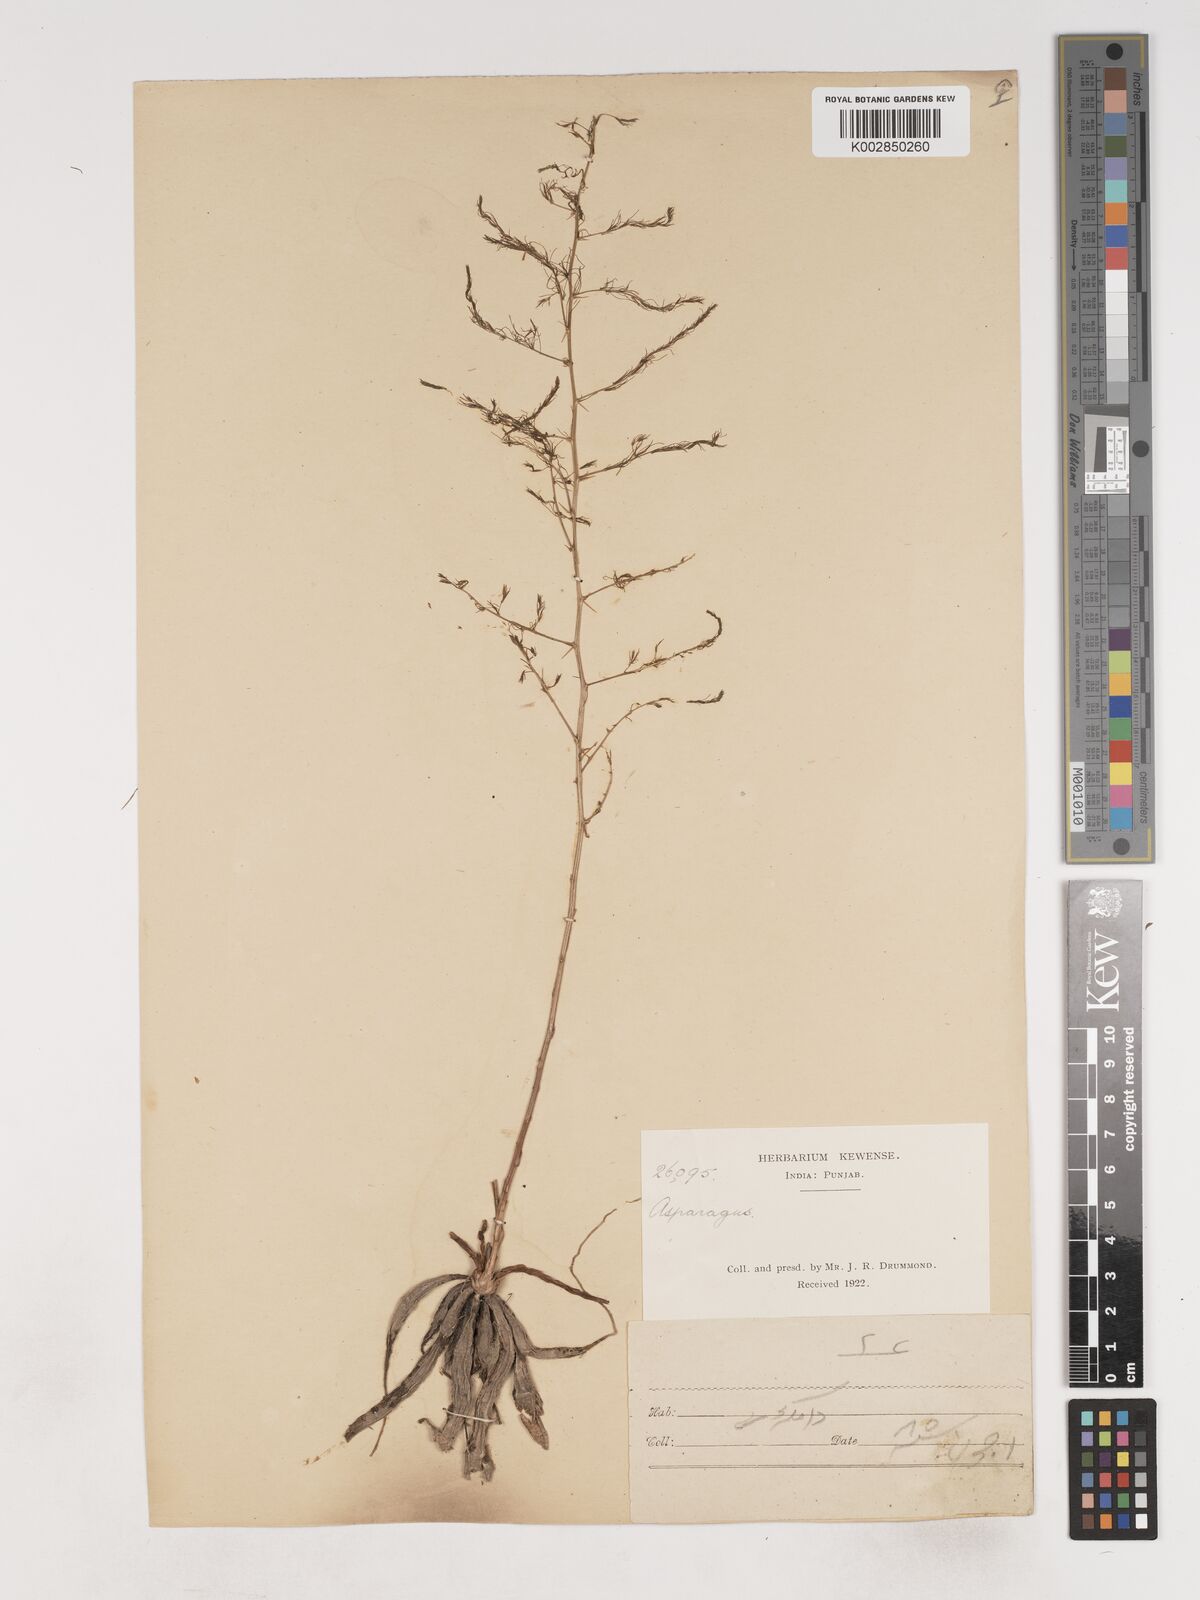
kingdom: Plantae
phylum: Tracheophyta
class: Liliopsida
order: Asparagales
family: Asparagaceae
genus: Asparagus
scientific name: Asparagus
